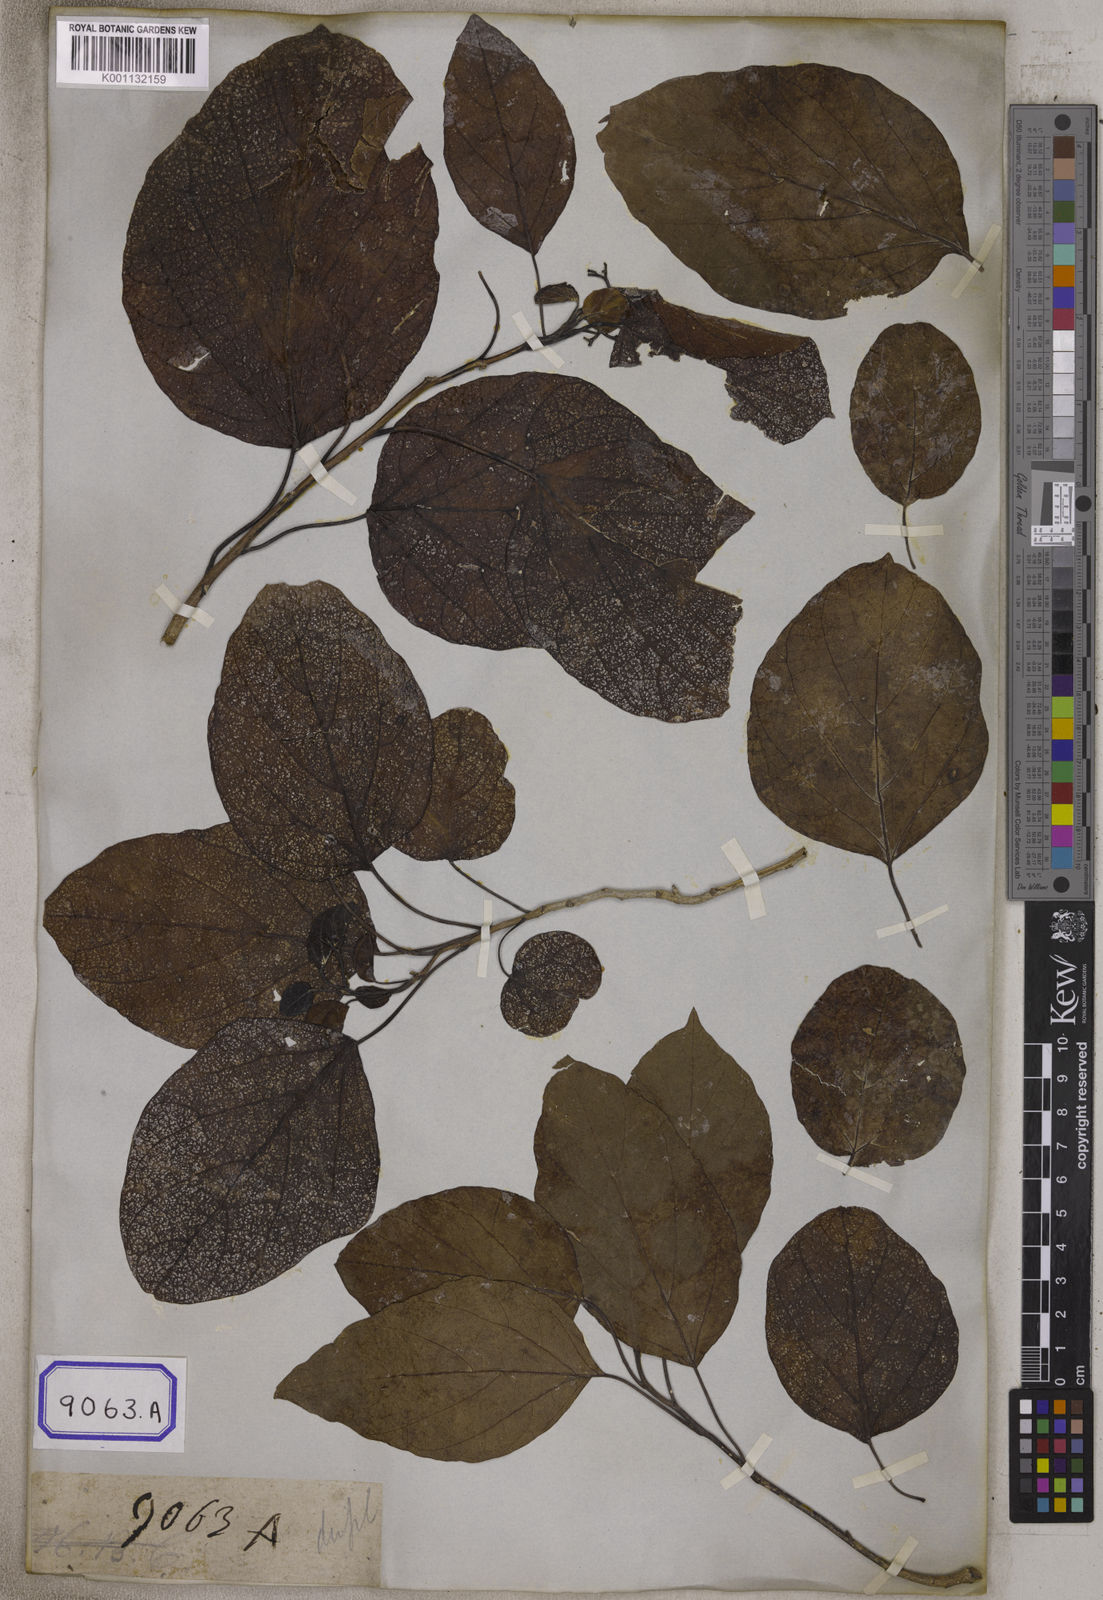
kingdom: Plantae
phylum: Tracheophyta
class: Magnoliopsida
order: Boraginales
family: Cordiaceae
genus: Cordia
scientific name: Cordia subcordata
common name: Mareer
